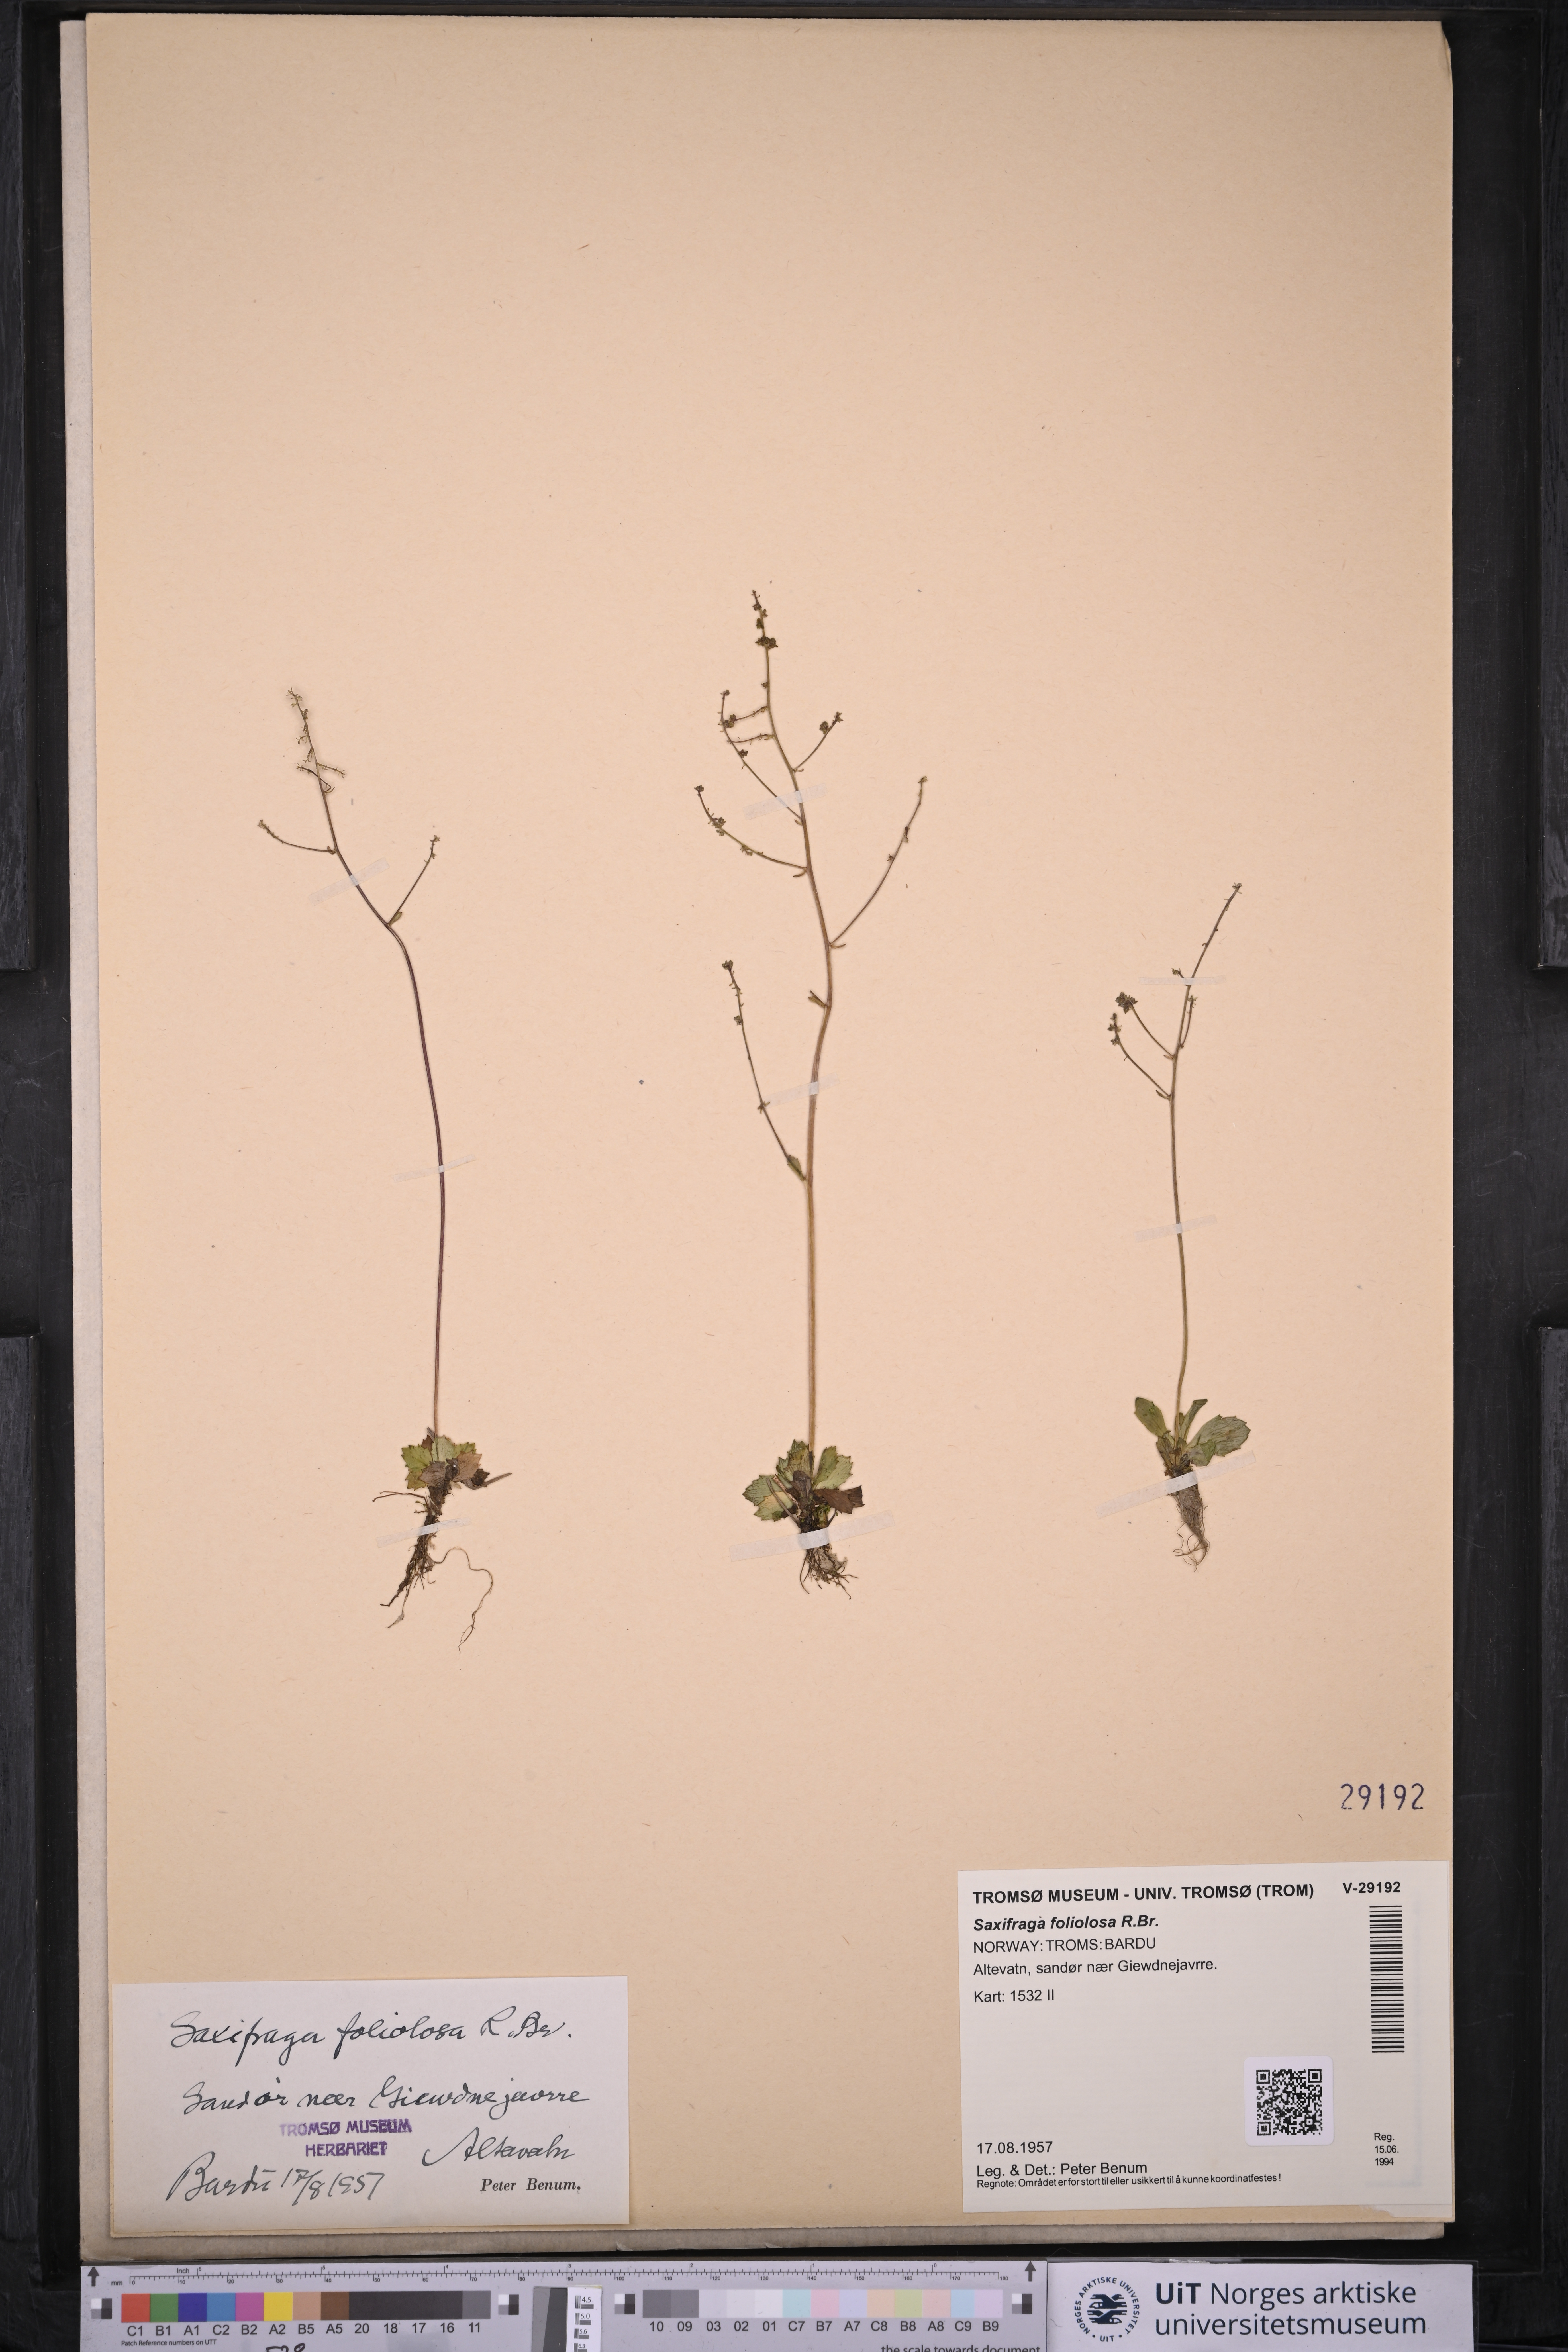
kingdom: Plantae
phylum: Tracheophyta
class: Magnoliopsida
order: Saxifragales
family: Saxifragaceae
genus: Micranthes
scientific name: Micranthes foliolosa
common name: Leafystem saxifrage
